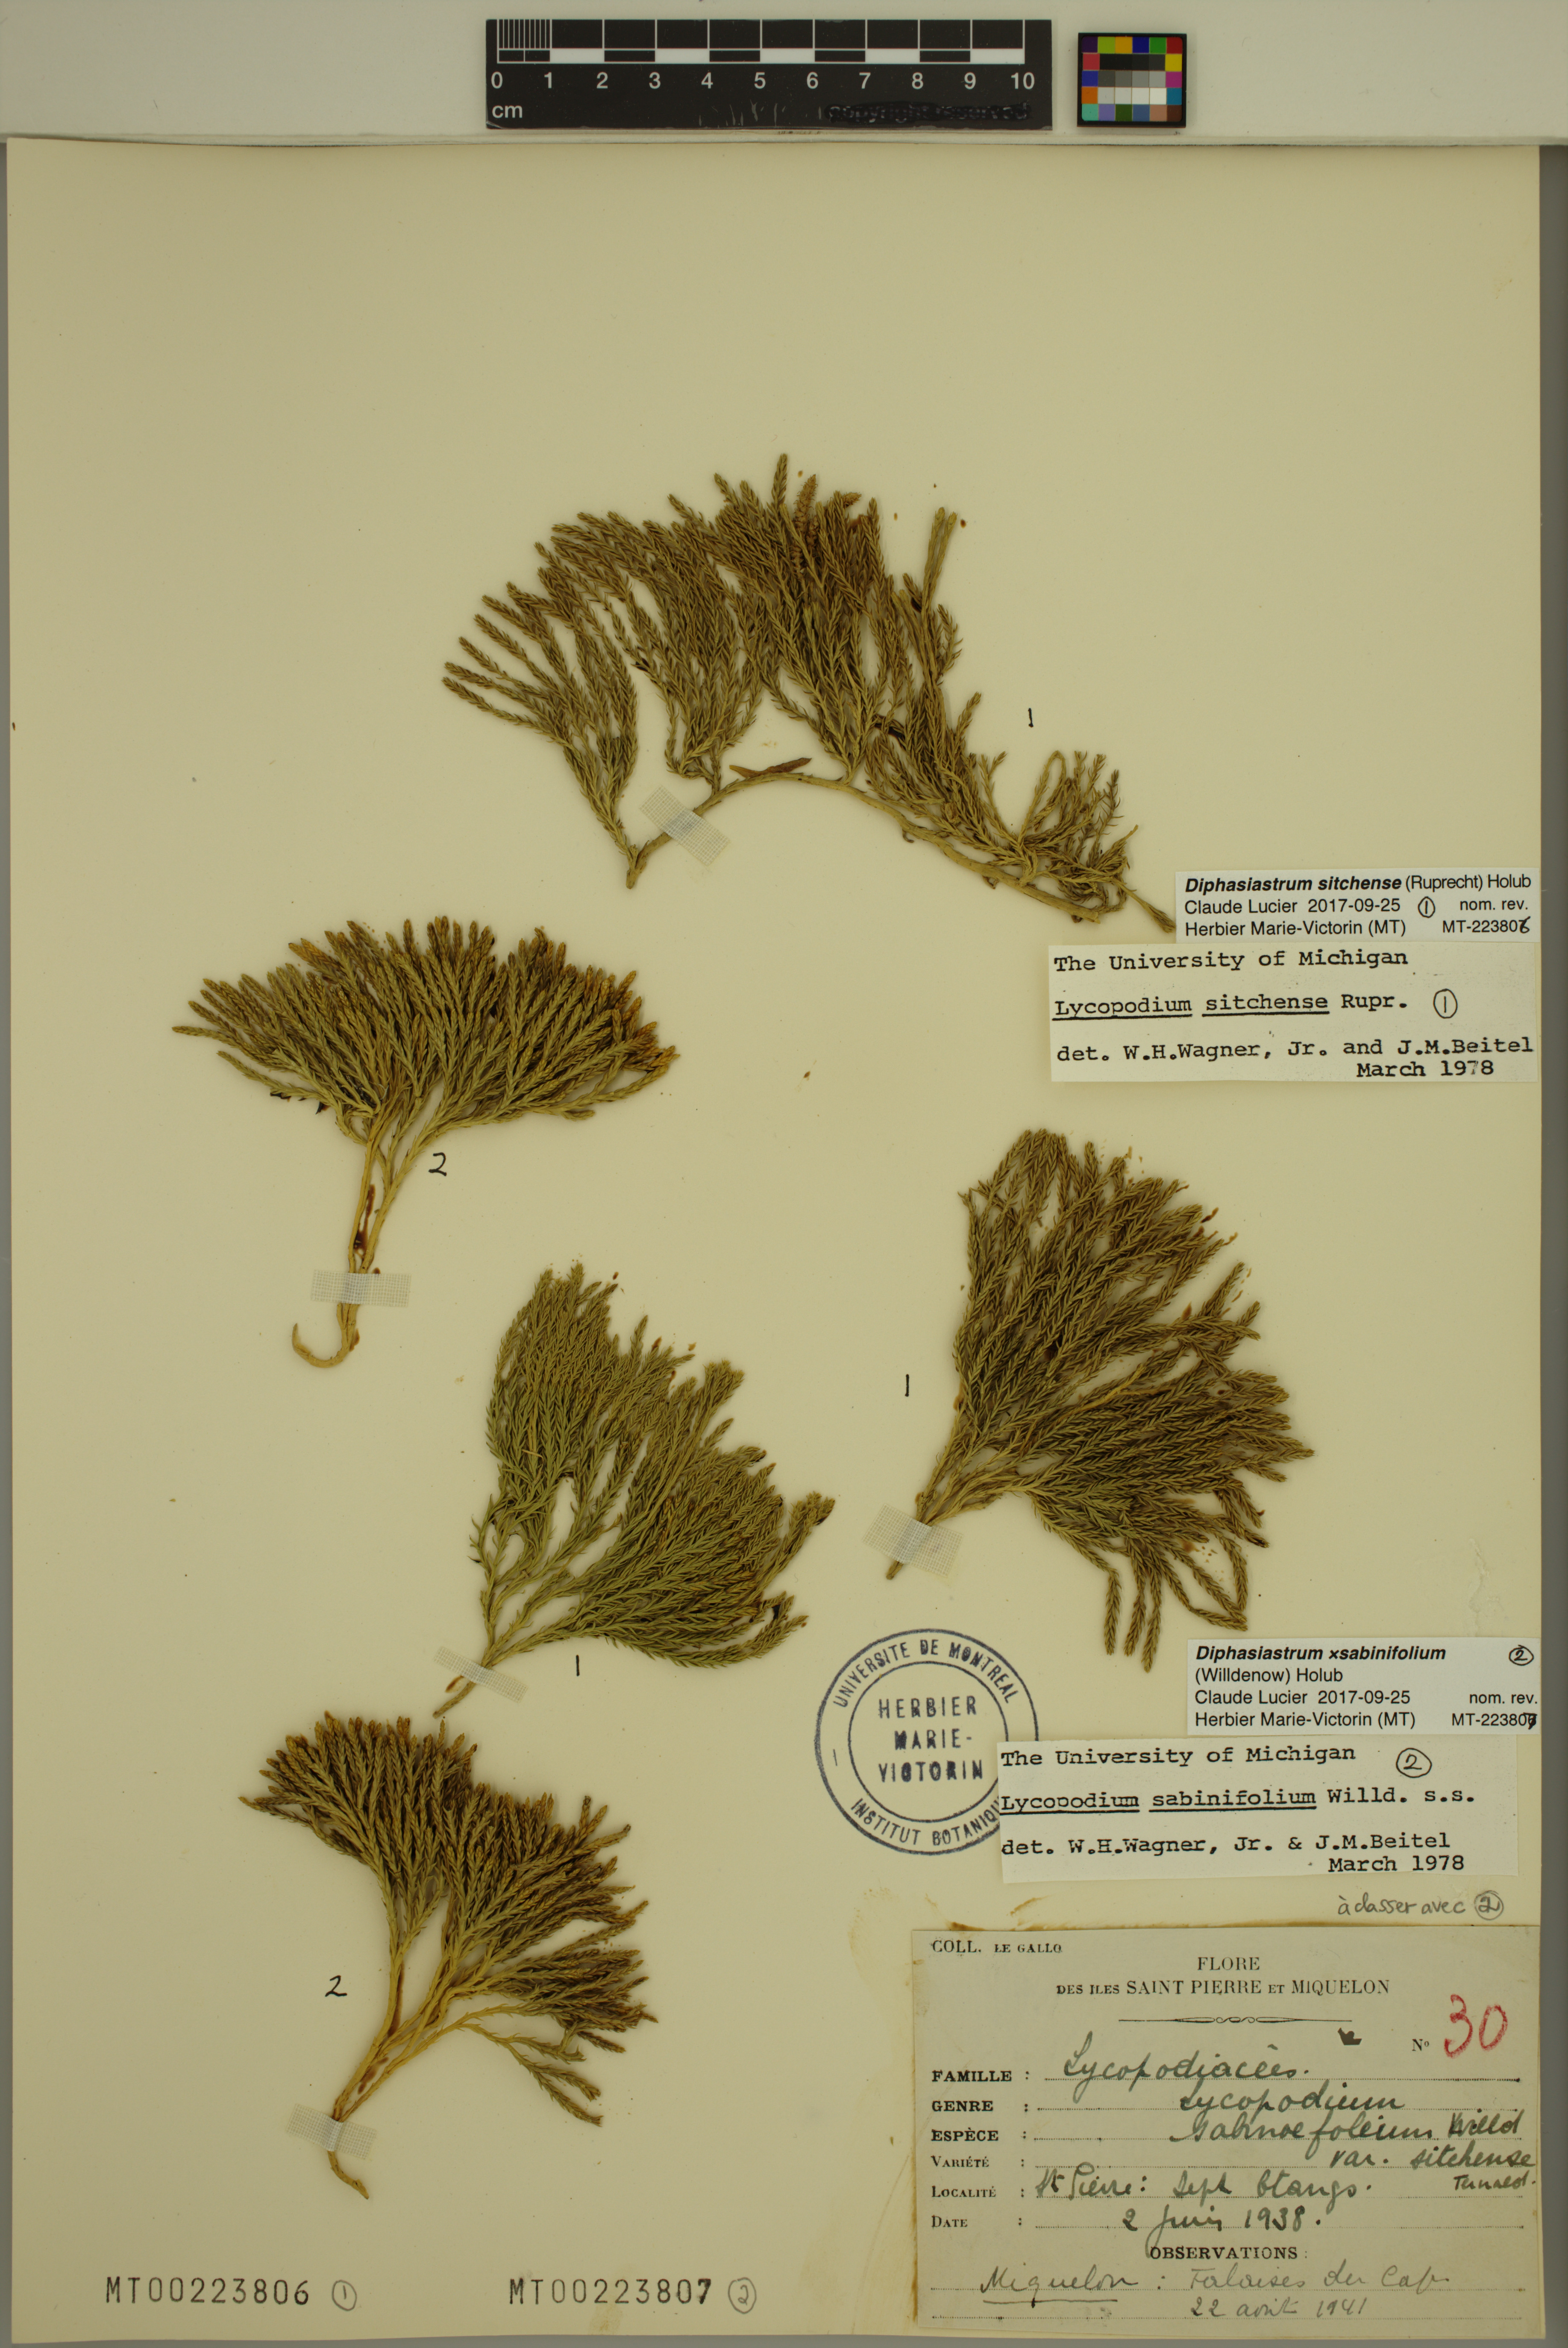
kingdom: Plantae
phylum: Tracheophyta
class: Lycopodiopsida
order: Lycopodiales
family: Lycopodiaceae
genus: Diphasiastrum
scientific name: Diphasiastrum sitchense
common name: Alaska clubmoss
